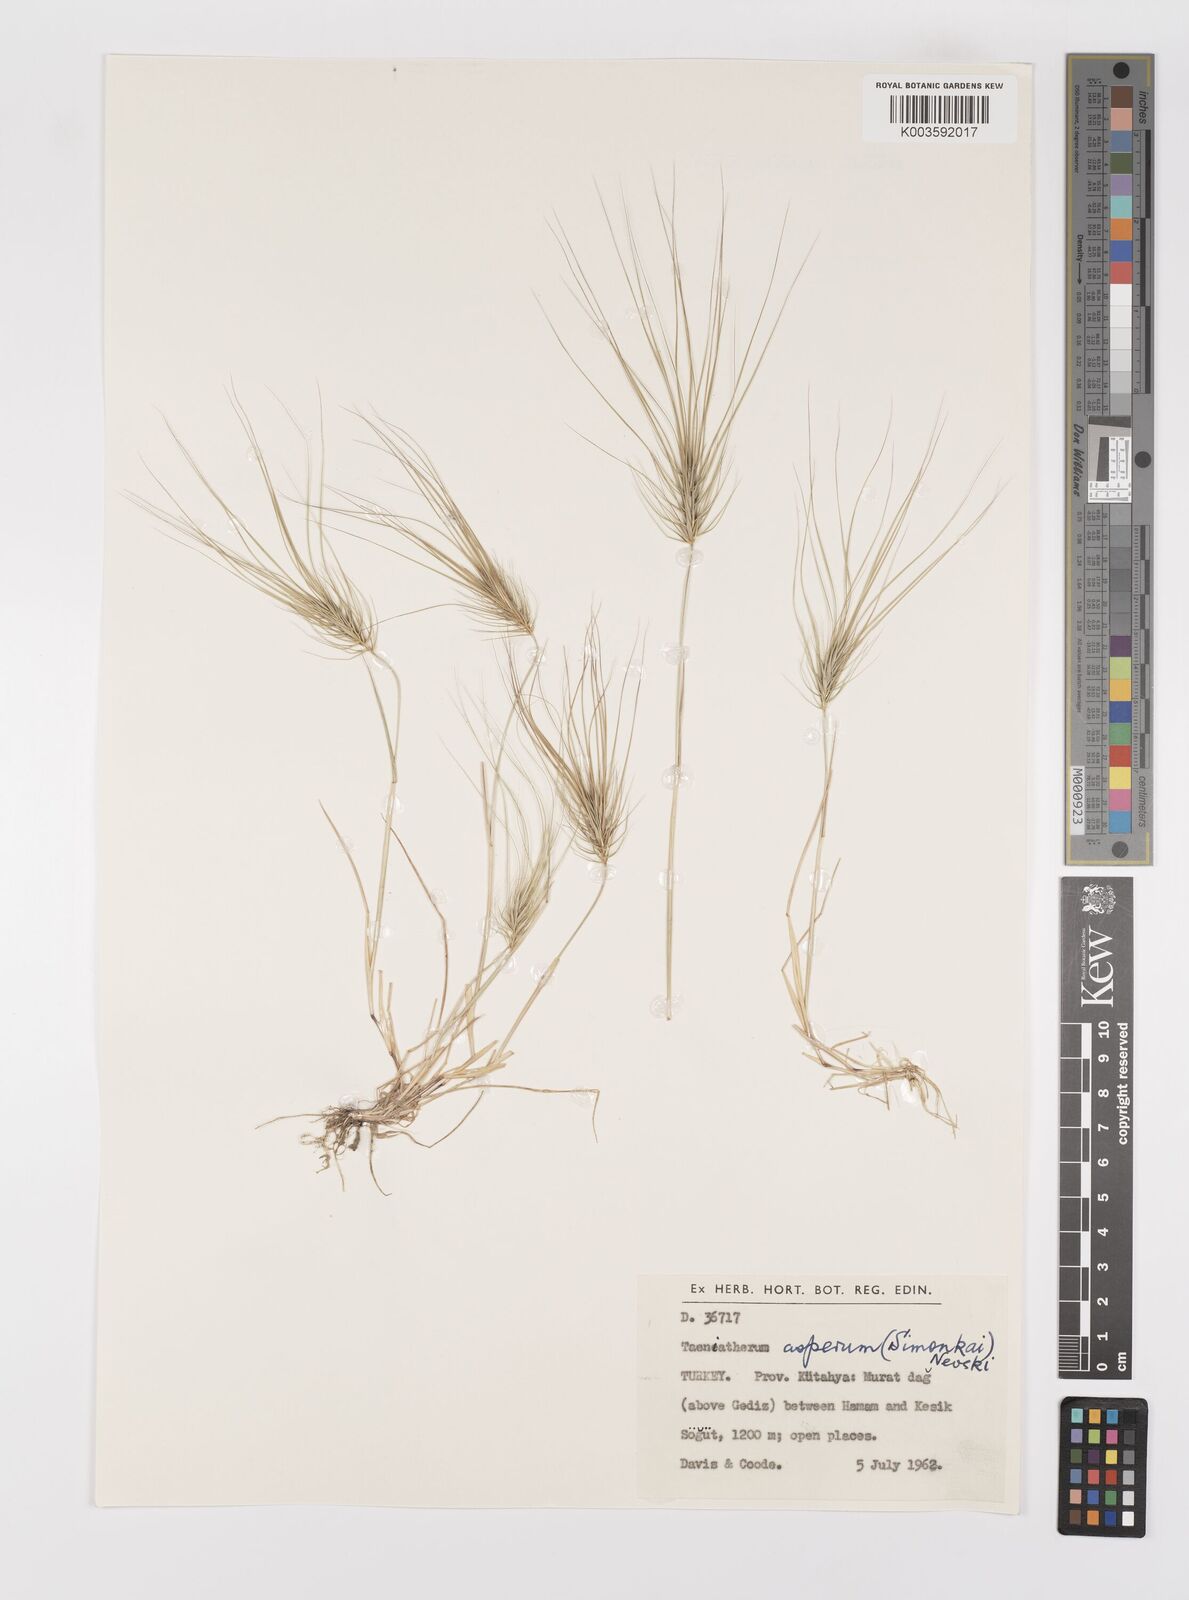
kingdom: Plantae
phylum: Tracheophyta
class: Liliopsida
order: Poales
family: Poaceae
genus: Taeniatherum
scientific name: Taeniatherum caput-medusae
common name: Medusahead
